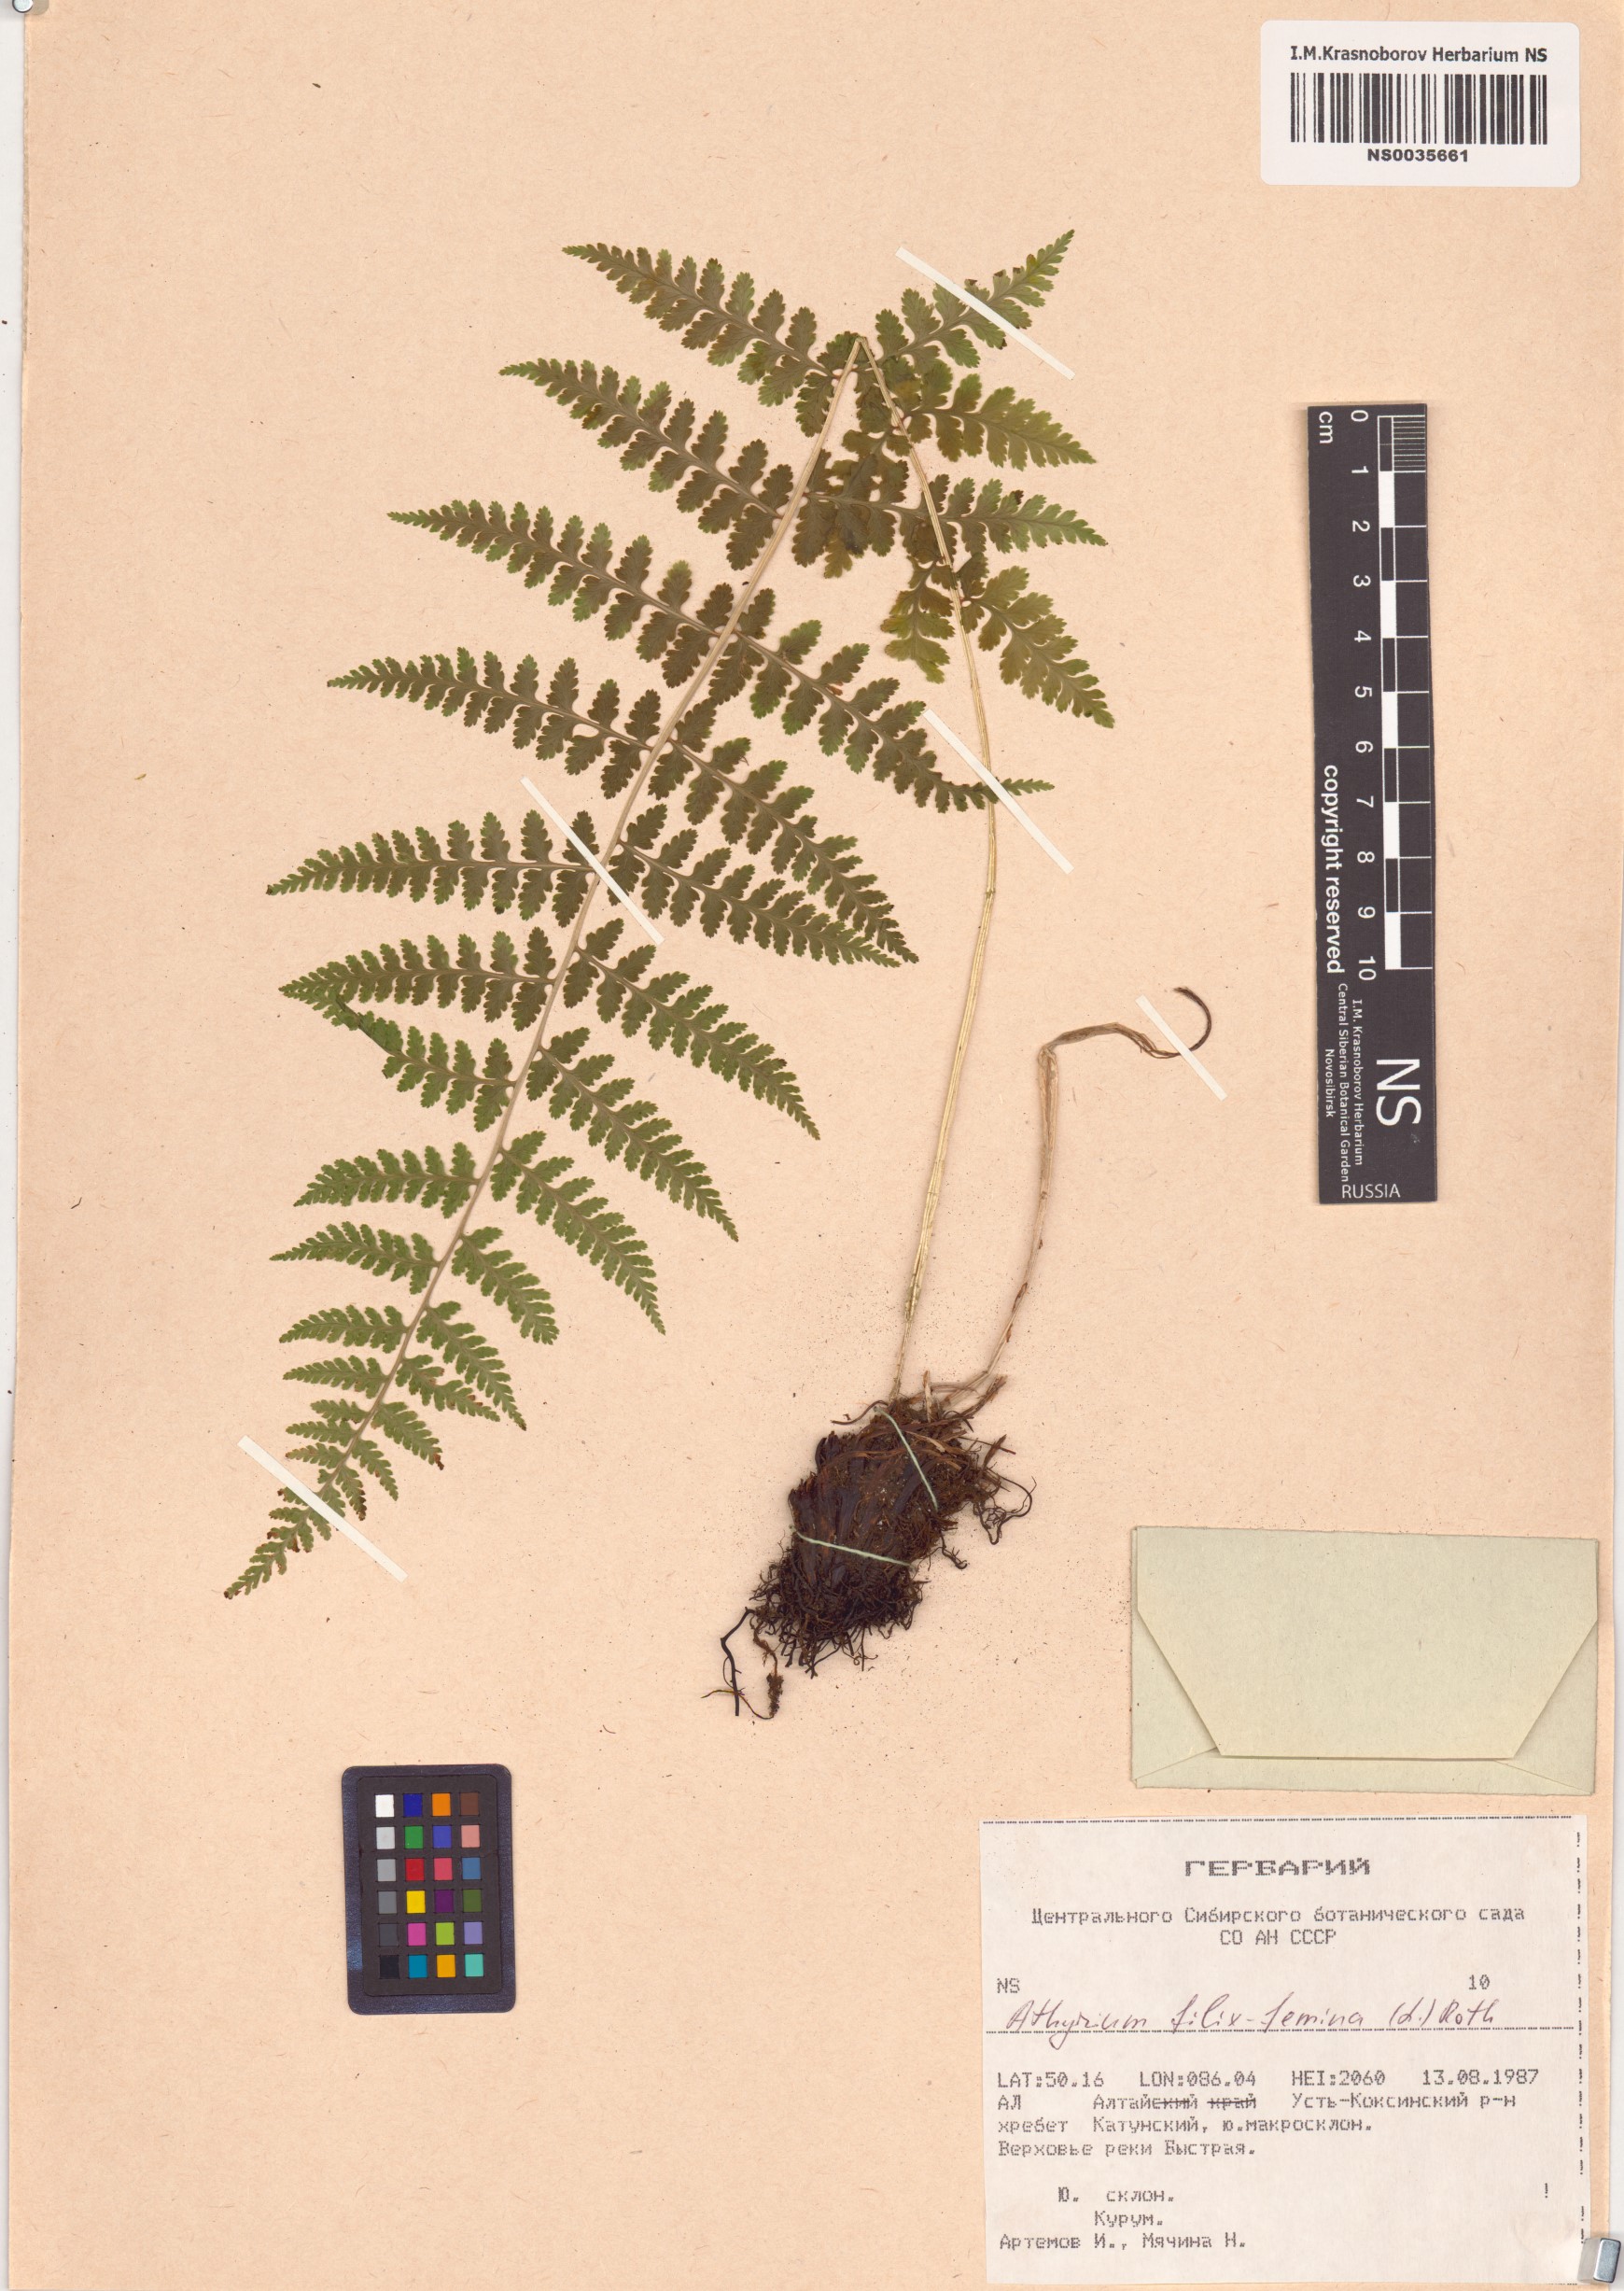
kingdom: Plantae
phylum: Tracheophyta
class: Polypodiopsida
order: Polypodiales
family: Athyriaceae
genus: Athyrium
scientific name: Athyrium filix-femina
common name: Lady fern
